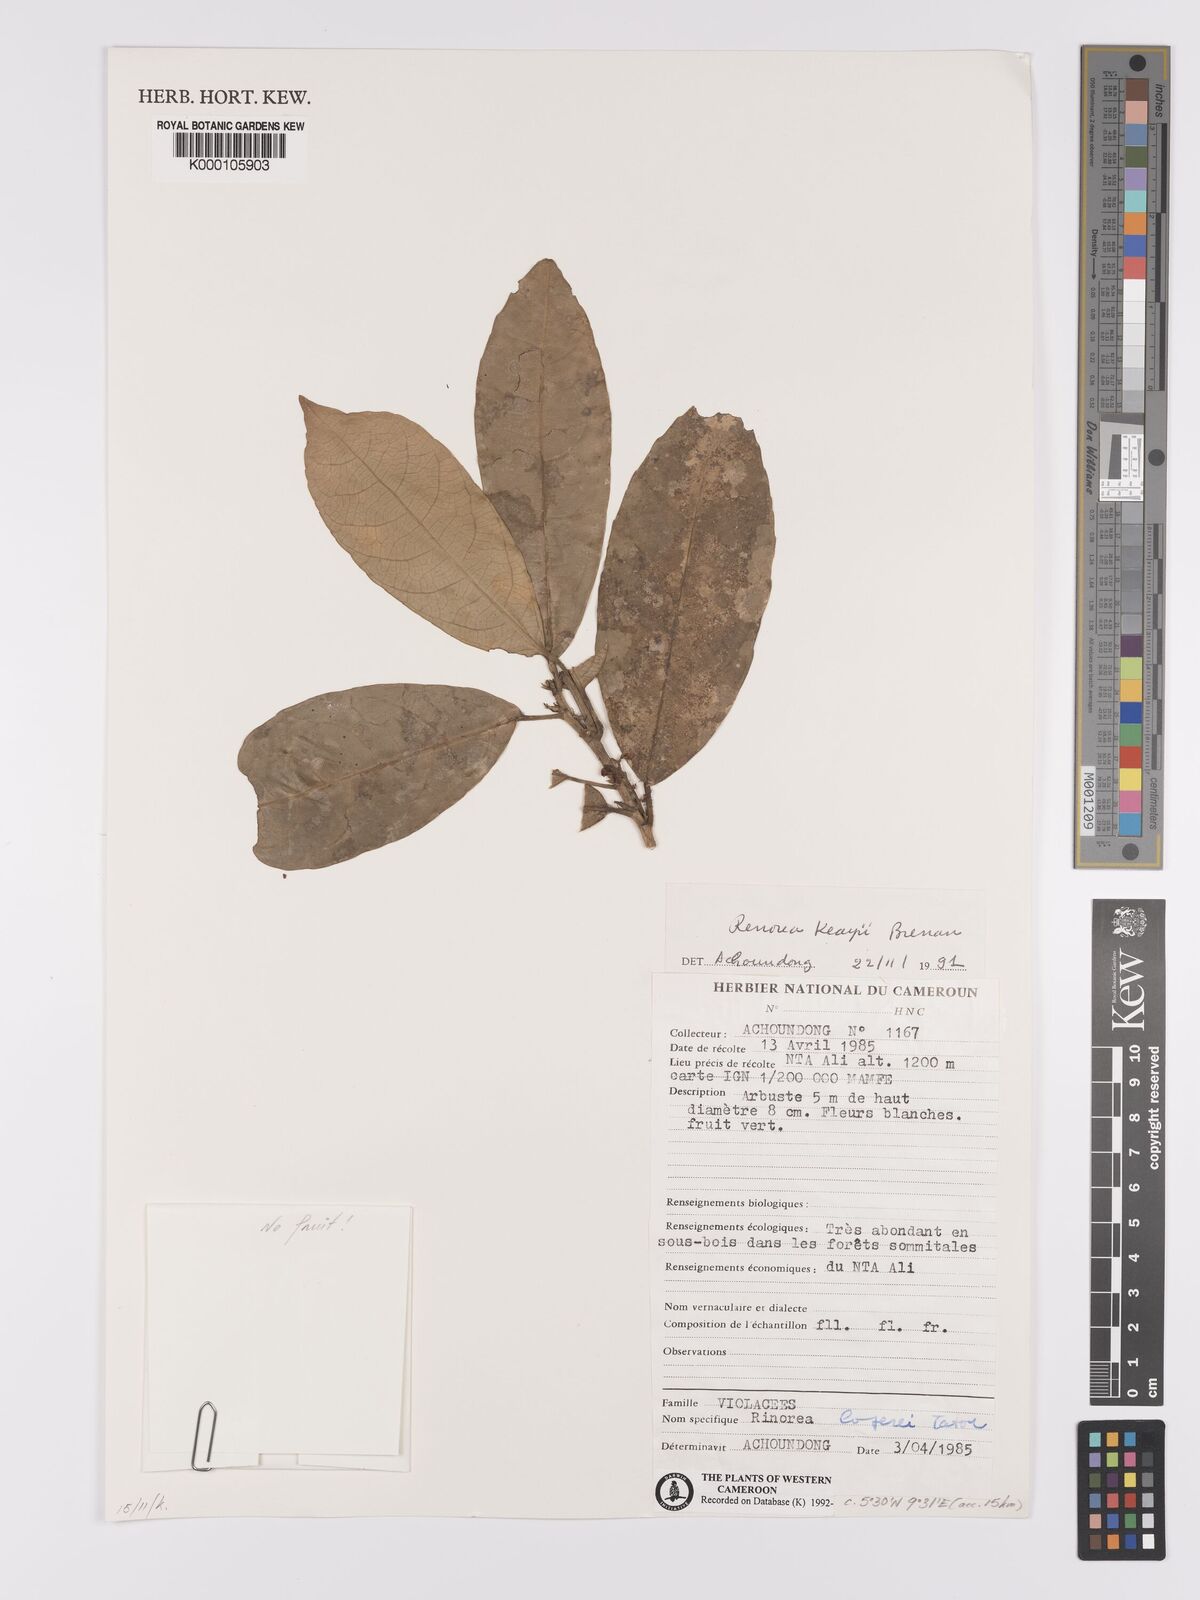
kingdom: Plantae
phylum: Tracheophyta
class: Magnoliopsida
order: Malpighiales
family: Violaceae
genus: Rinorea
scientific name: Rinorea keayi
